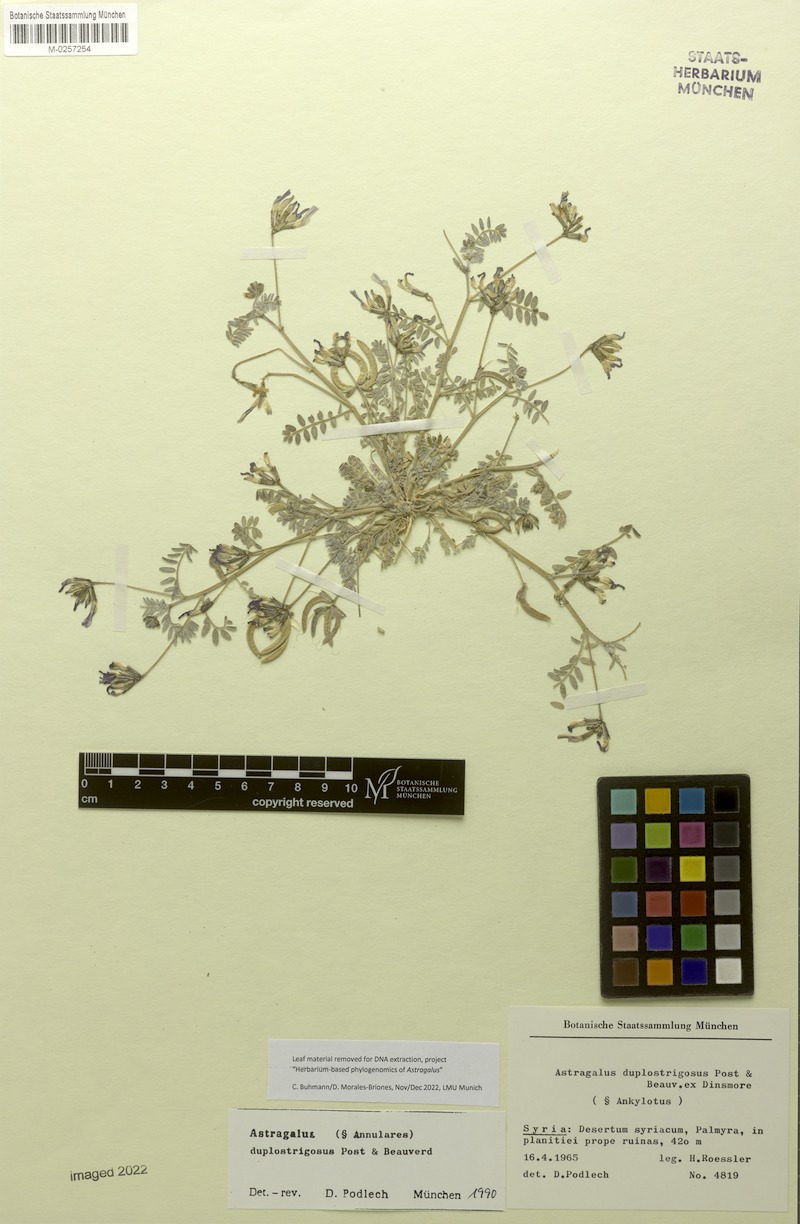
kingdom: Plantae
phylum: Tracheophyta
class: Magnoliopsida
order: Fabales
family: Fabaceae
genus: Astragalus
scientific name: Astragalus
